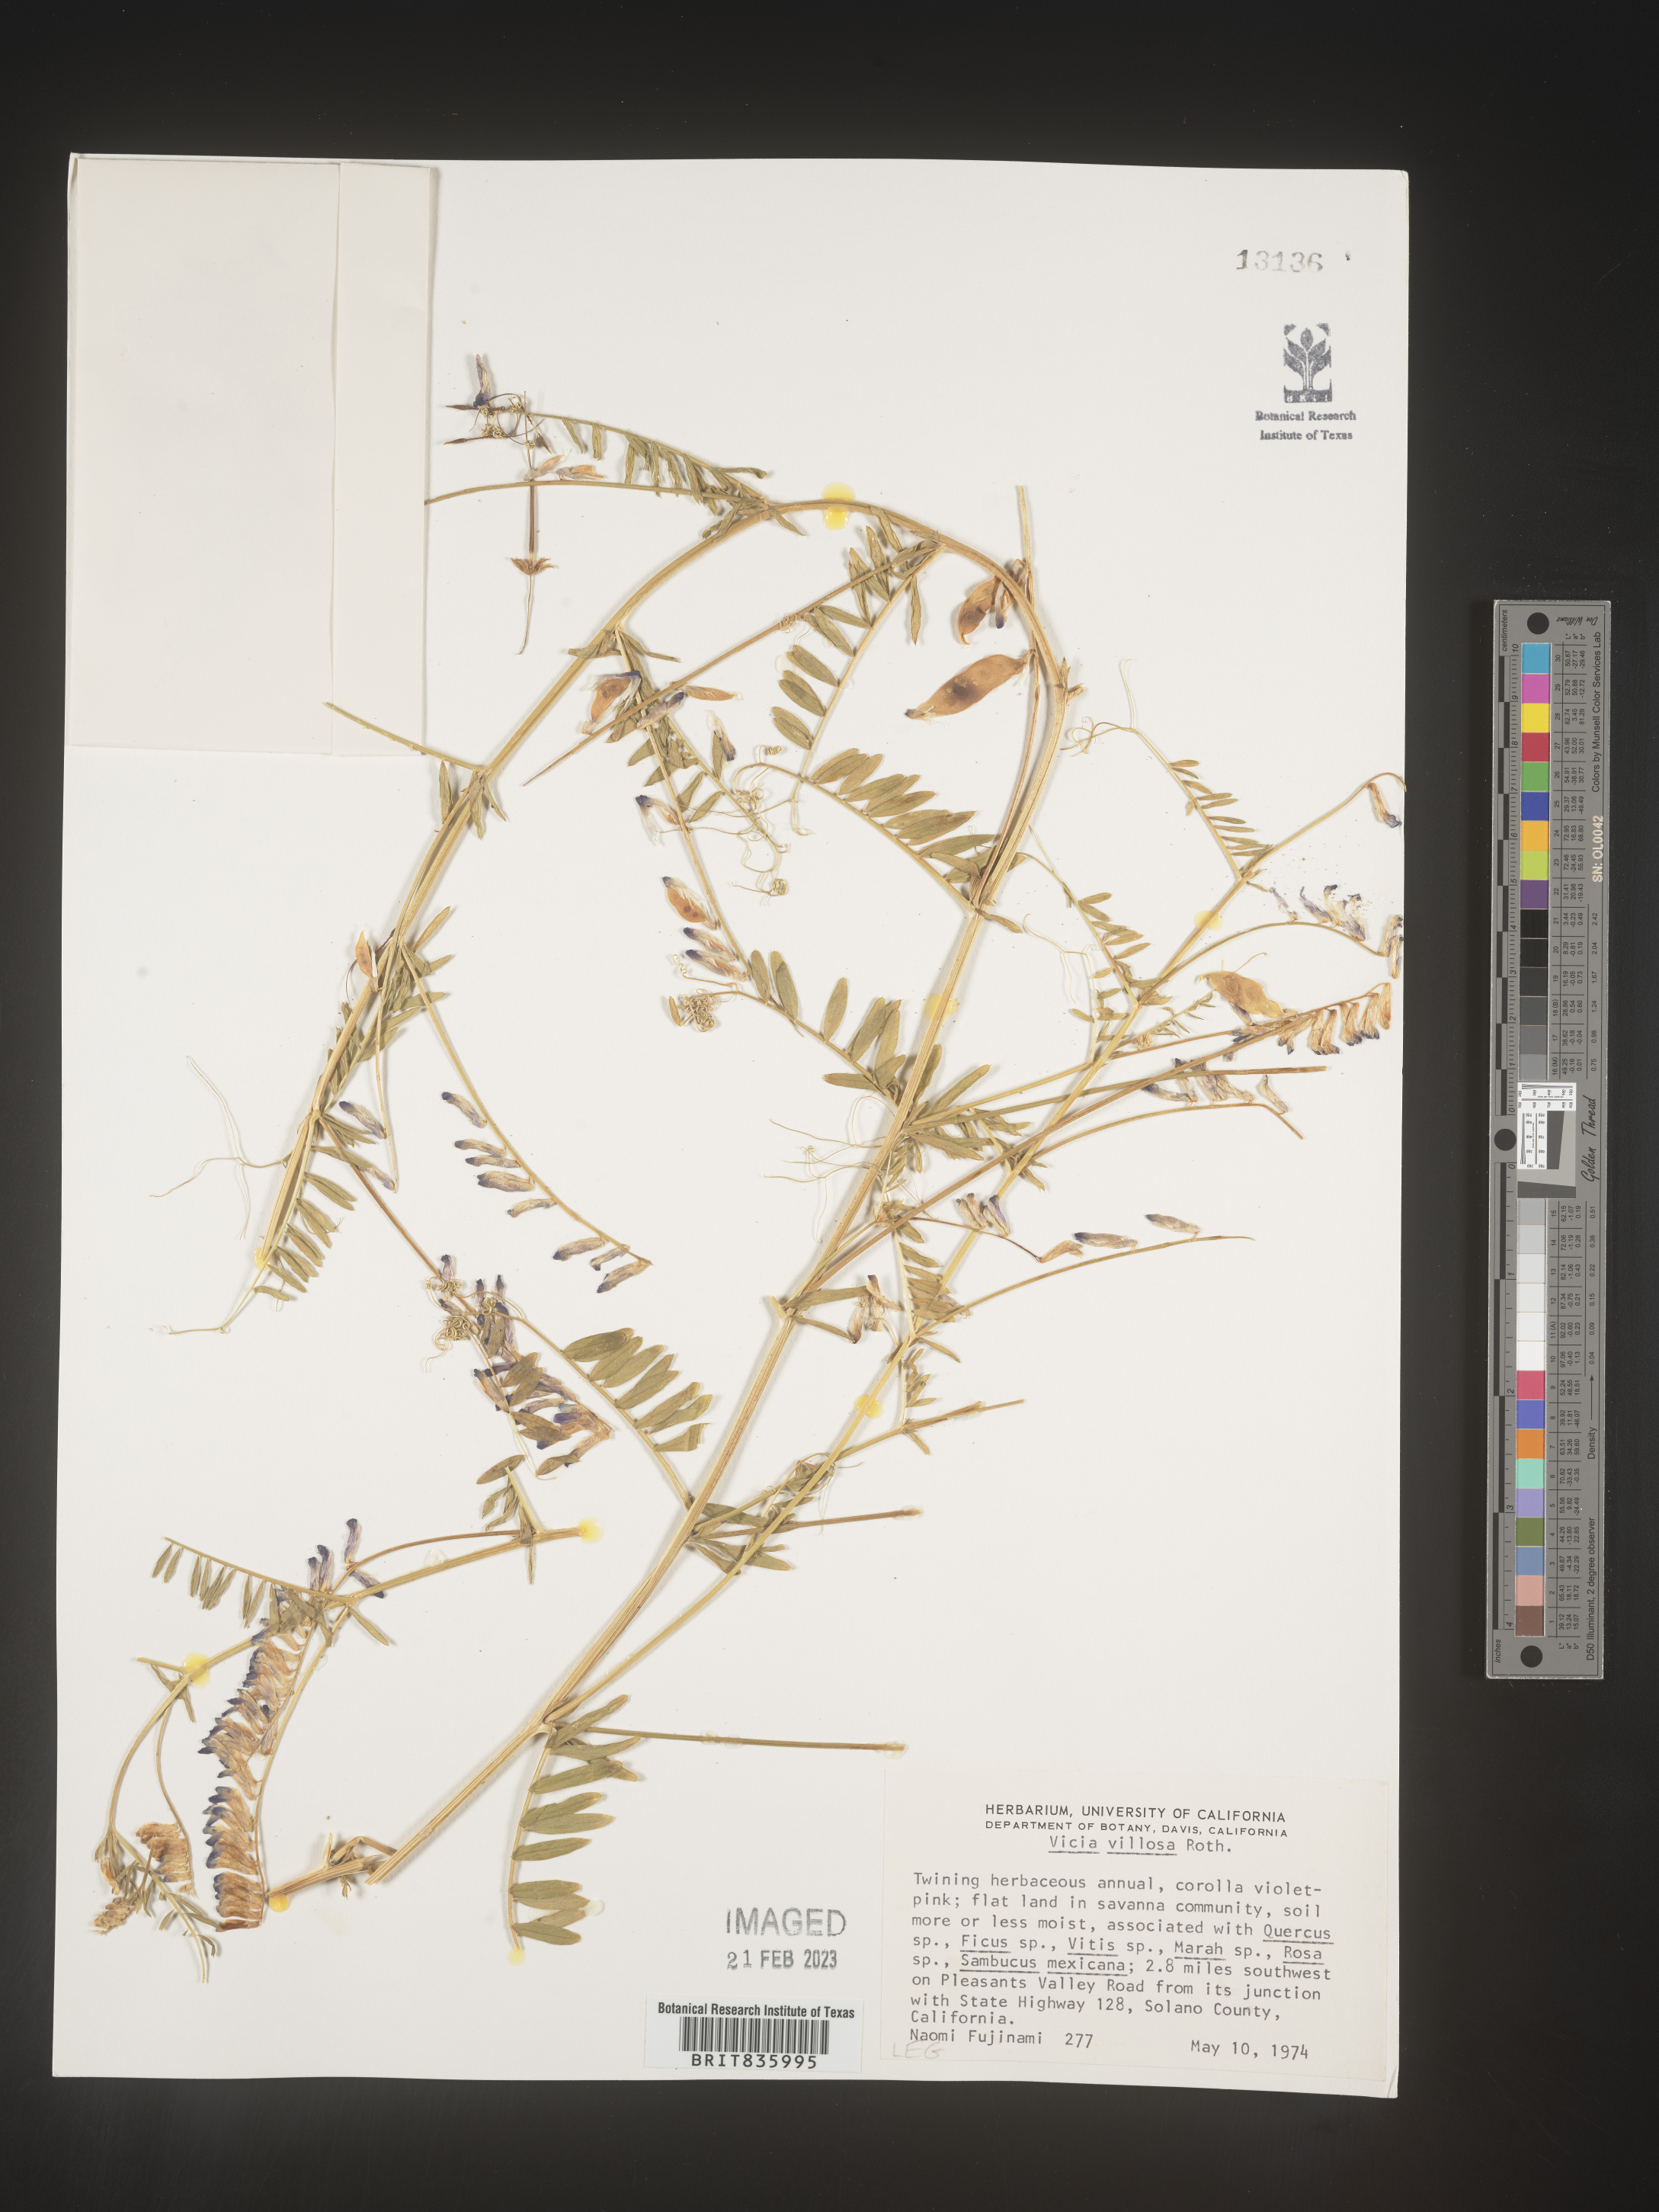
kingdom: Plantae
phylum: Tracheophyta
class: Magnoliopsida
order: Fabales
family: Fabaceae
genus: Vicia
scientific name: Vicia villosa
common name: Fodder vetch
